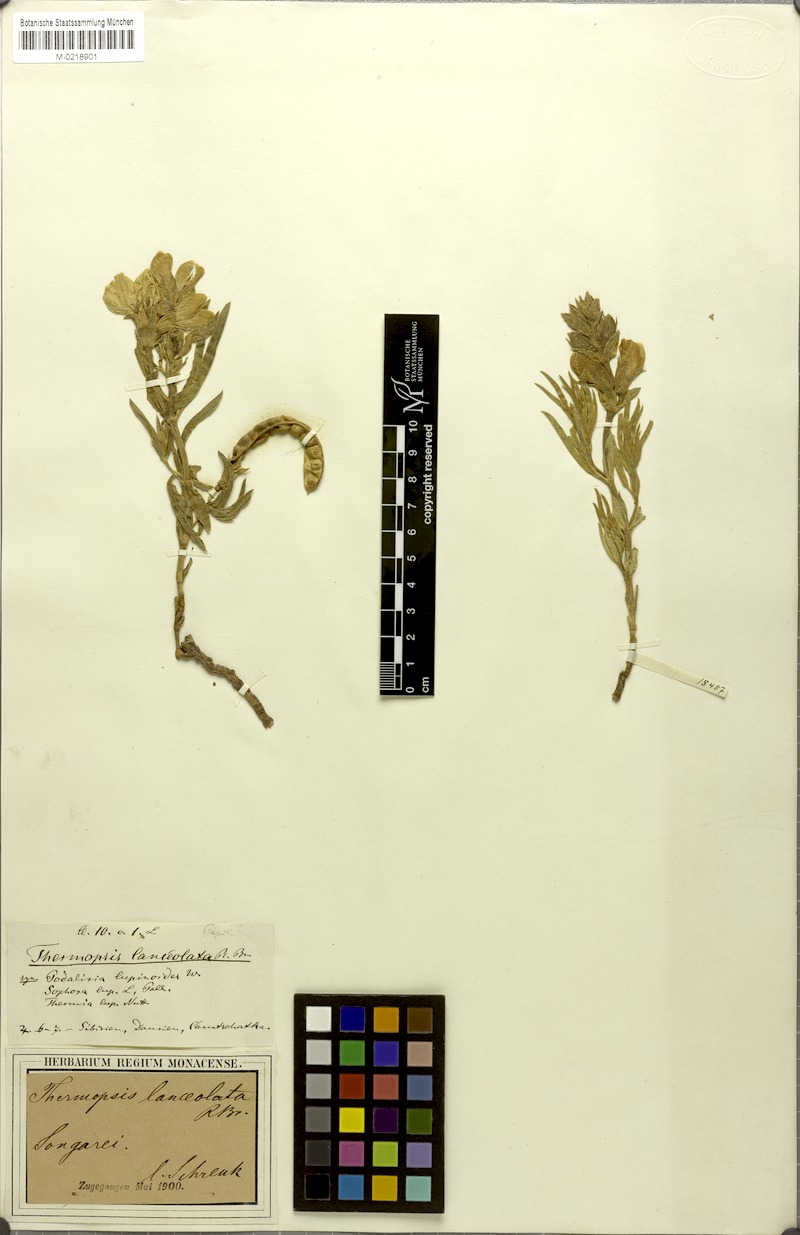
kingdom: Plantae
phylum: Tracheophyta
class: Magnoliopsida
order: Fabales
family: Fabaceae
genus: Thermopsis
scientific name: Thermopsis lanceolata
